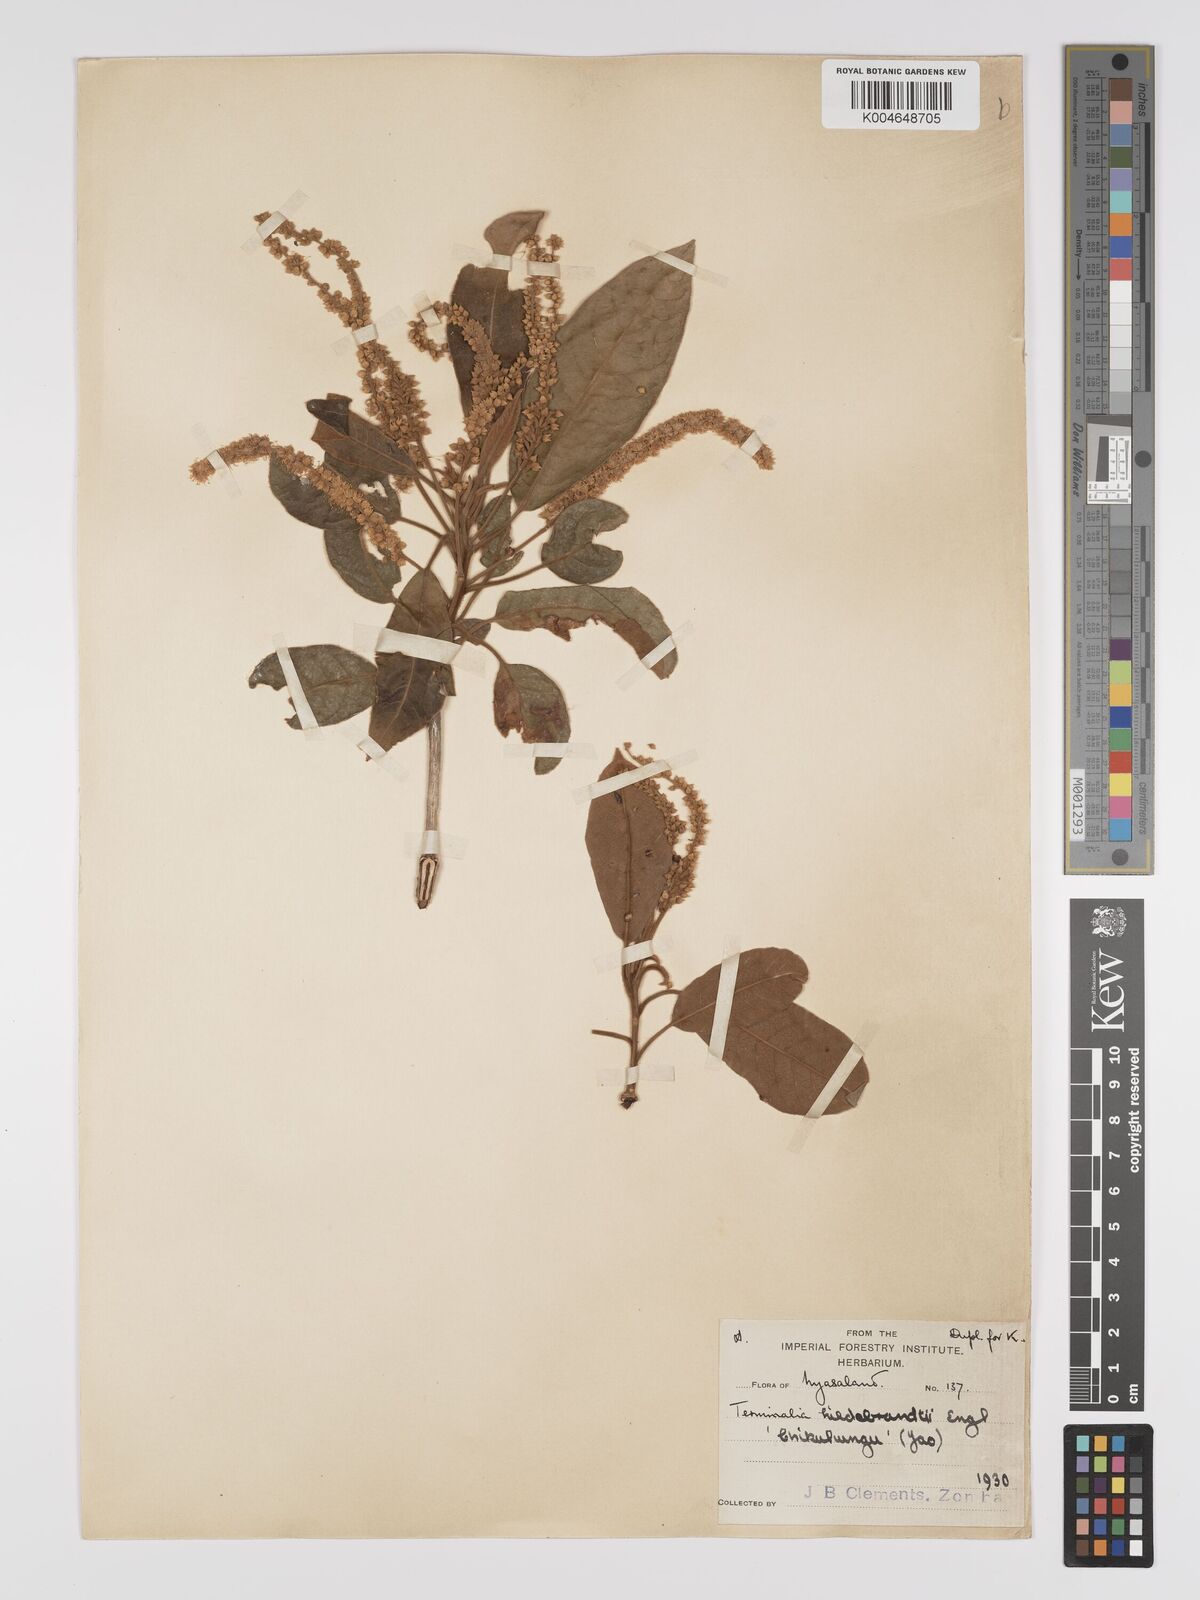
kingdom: Plantae
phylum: Tracheophyta
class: Magnoliopsida
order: Myrtales
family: Combretaceae
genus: Terminalia
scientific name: Terminalia stenostachya
